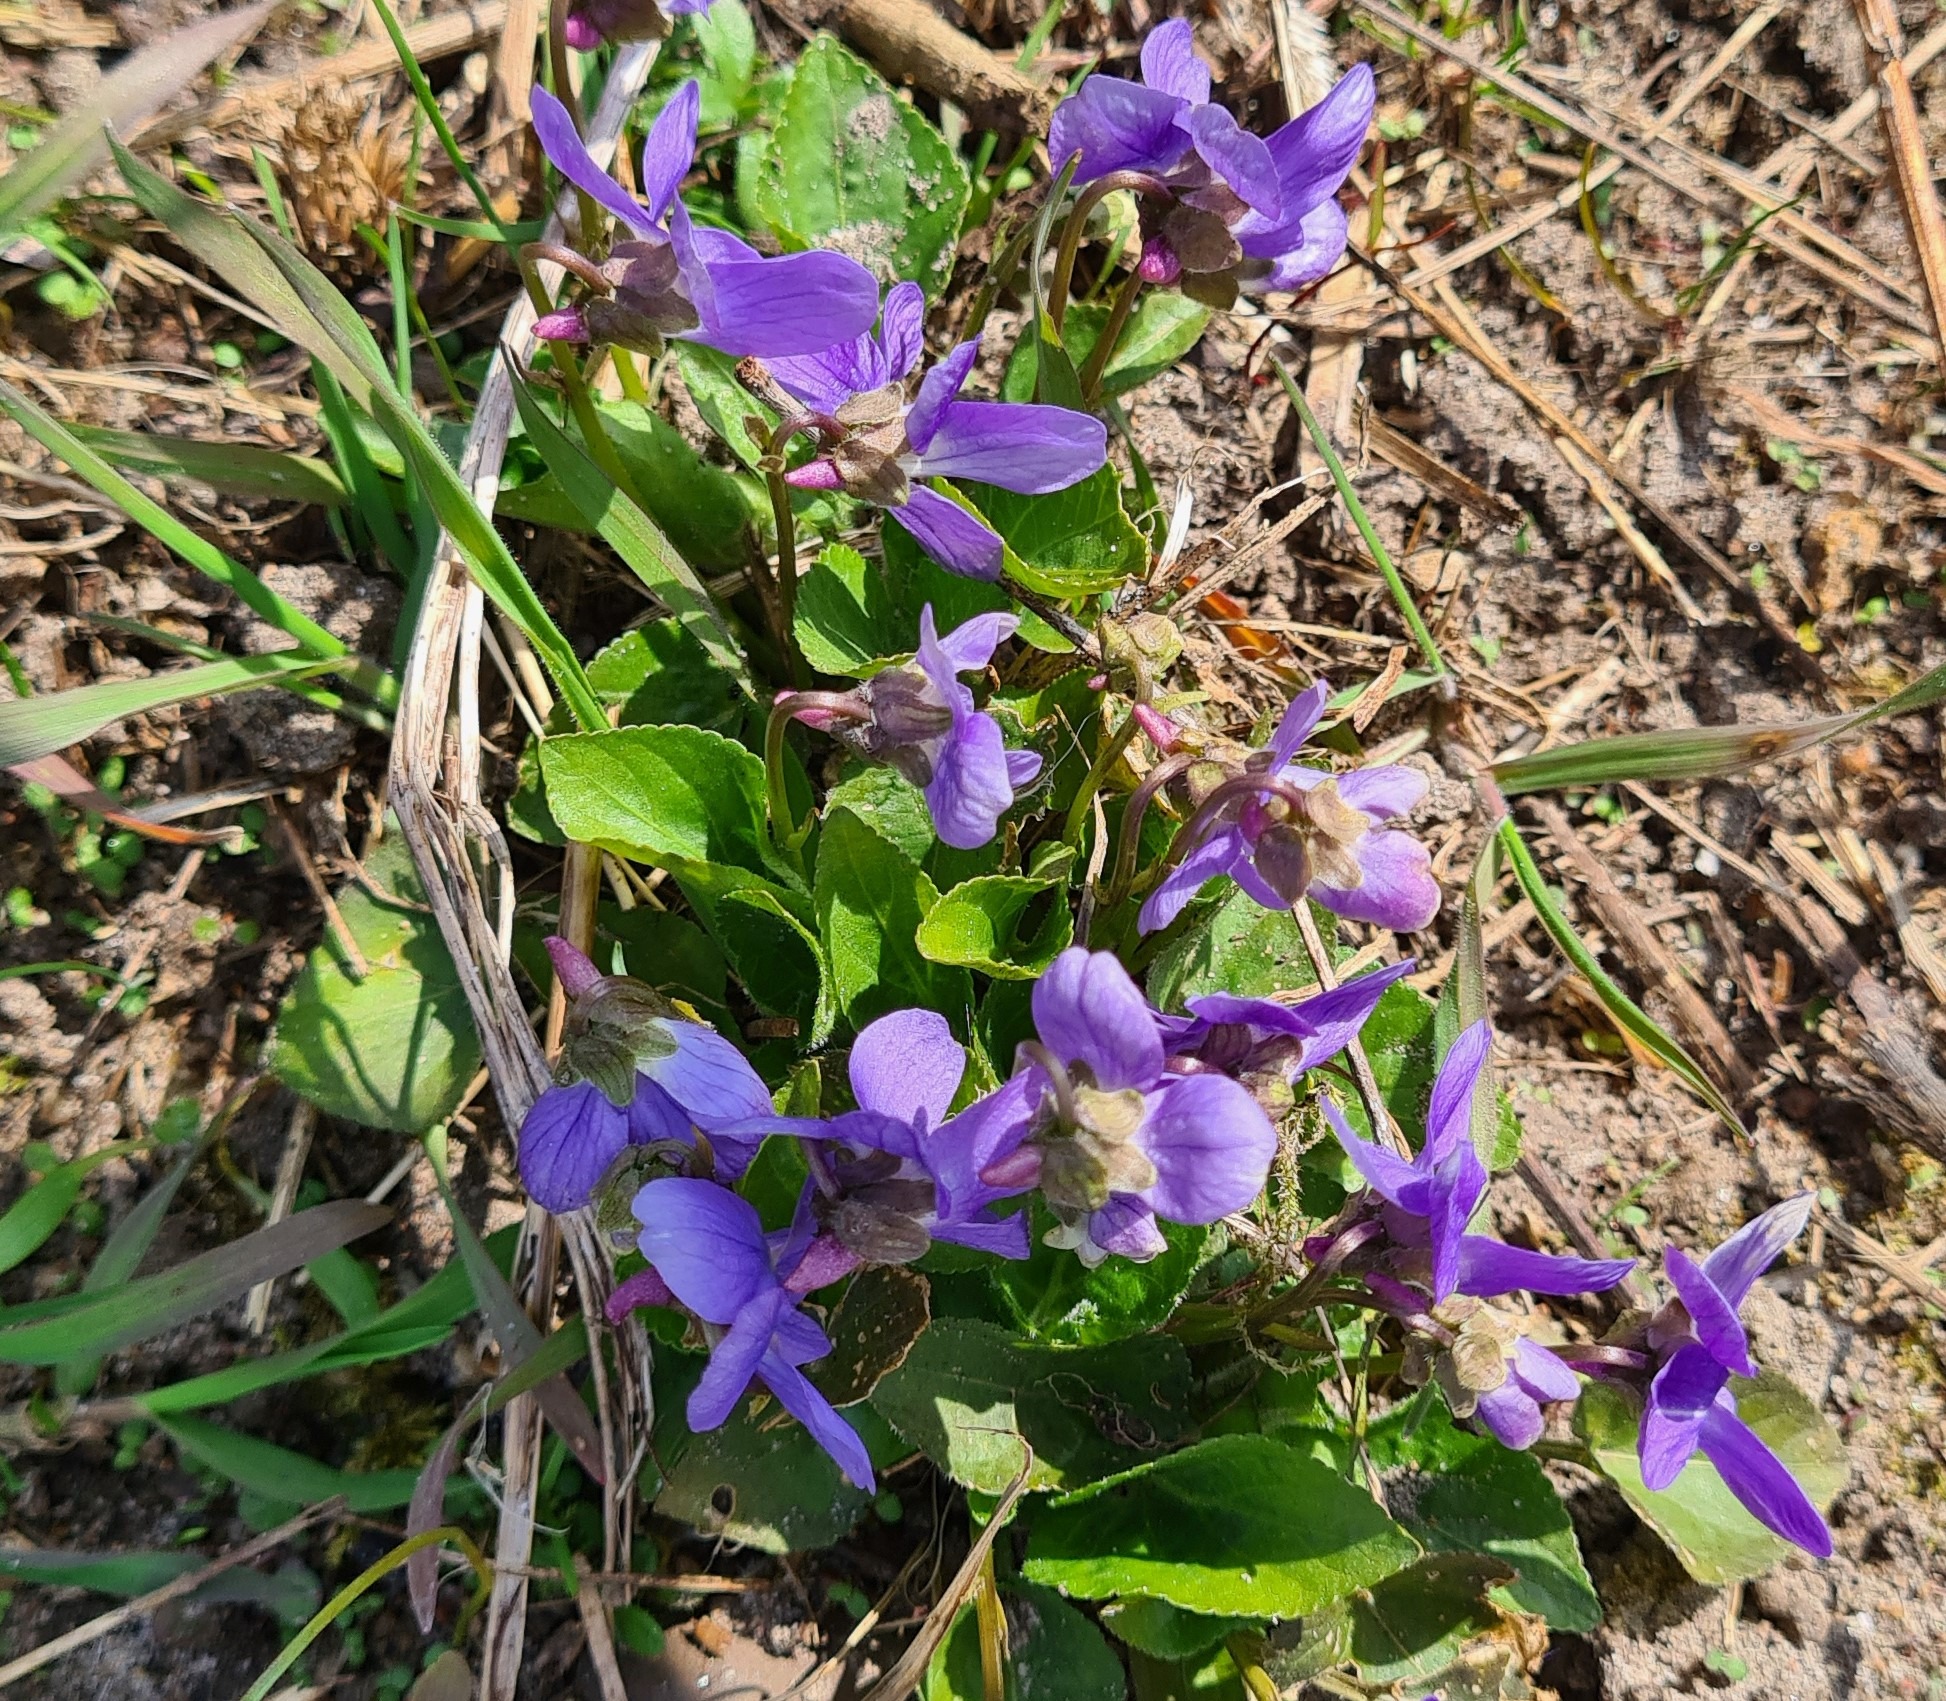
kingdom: Plantae
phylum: Tracheophyta
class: Magnoliopsida
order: Malpighiales
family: Violaceae
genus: Viola
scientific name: Viola hirta
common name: Håret viol
